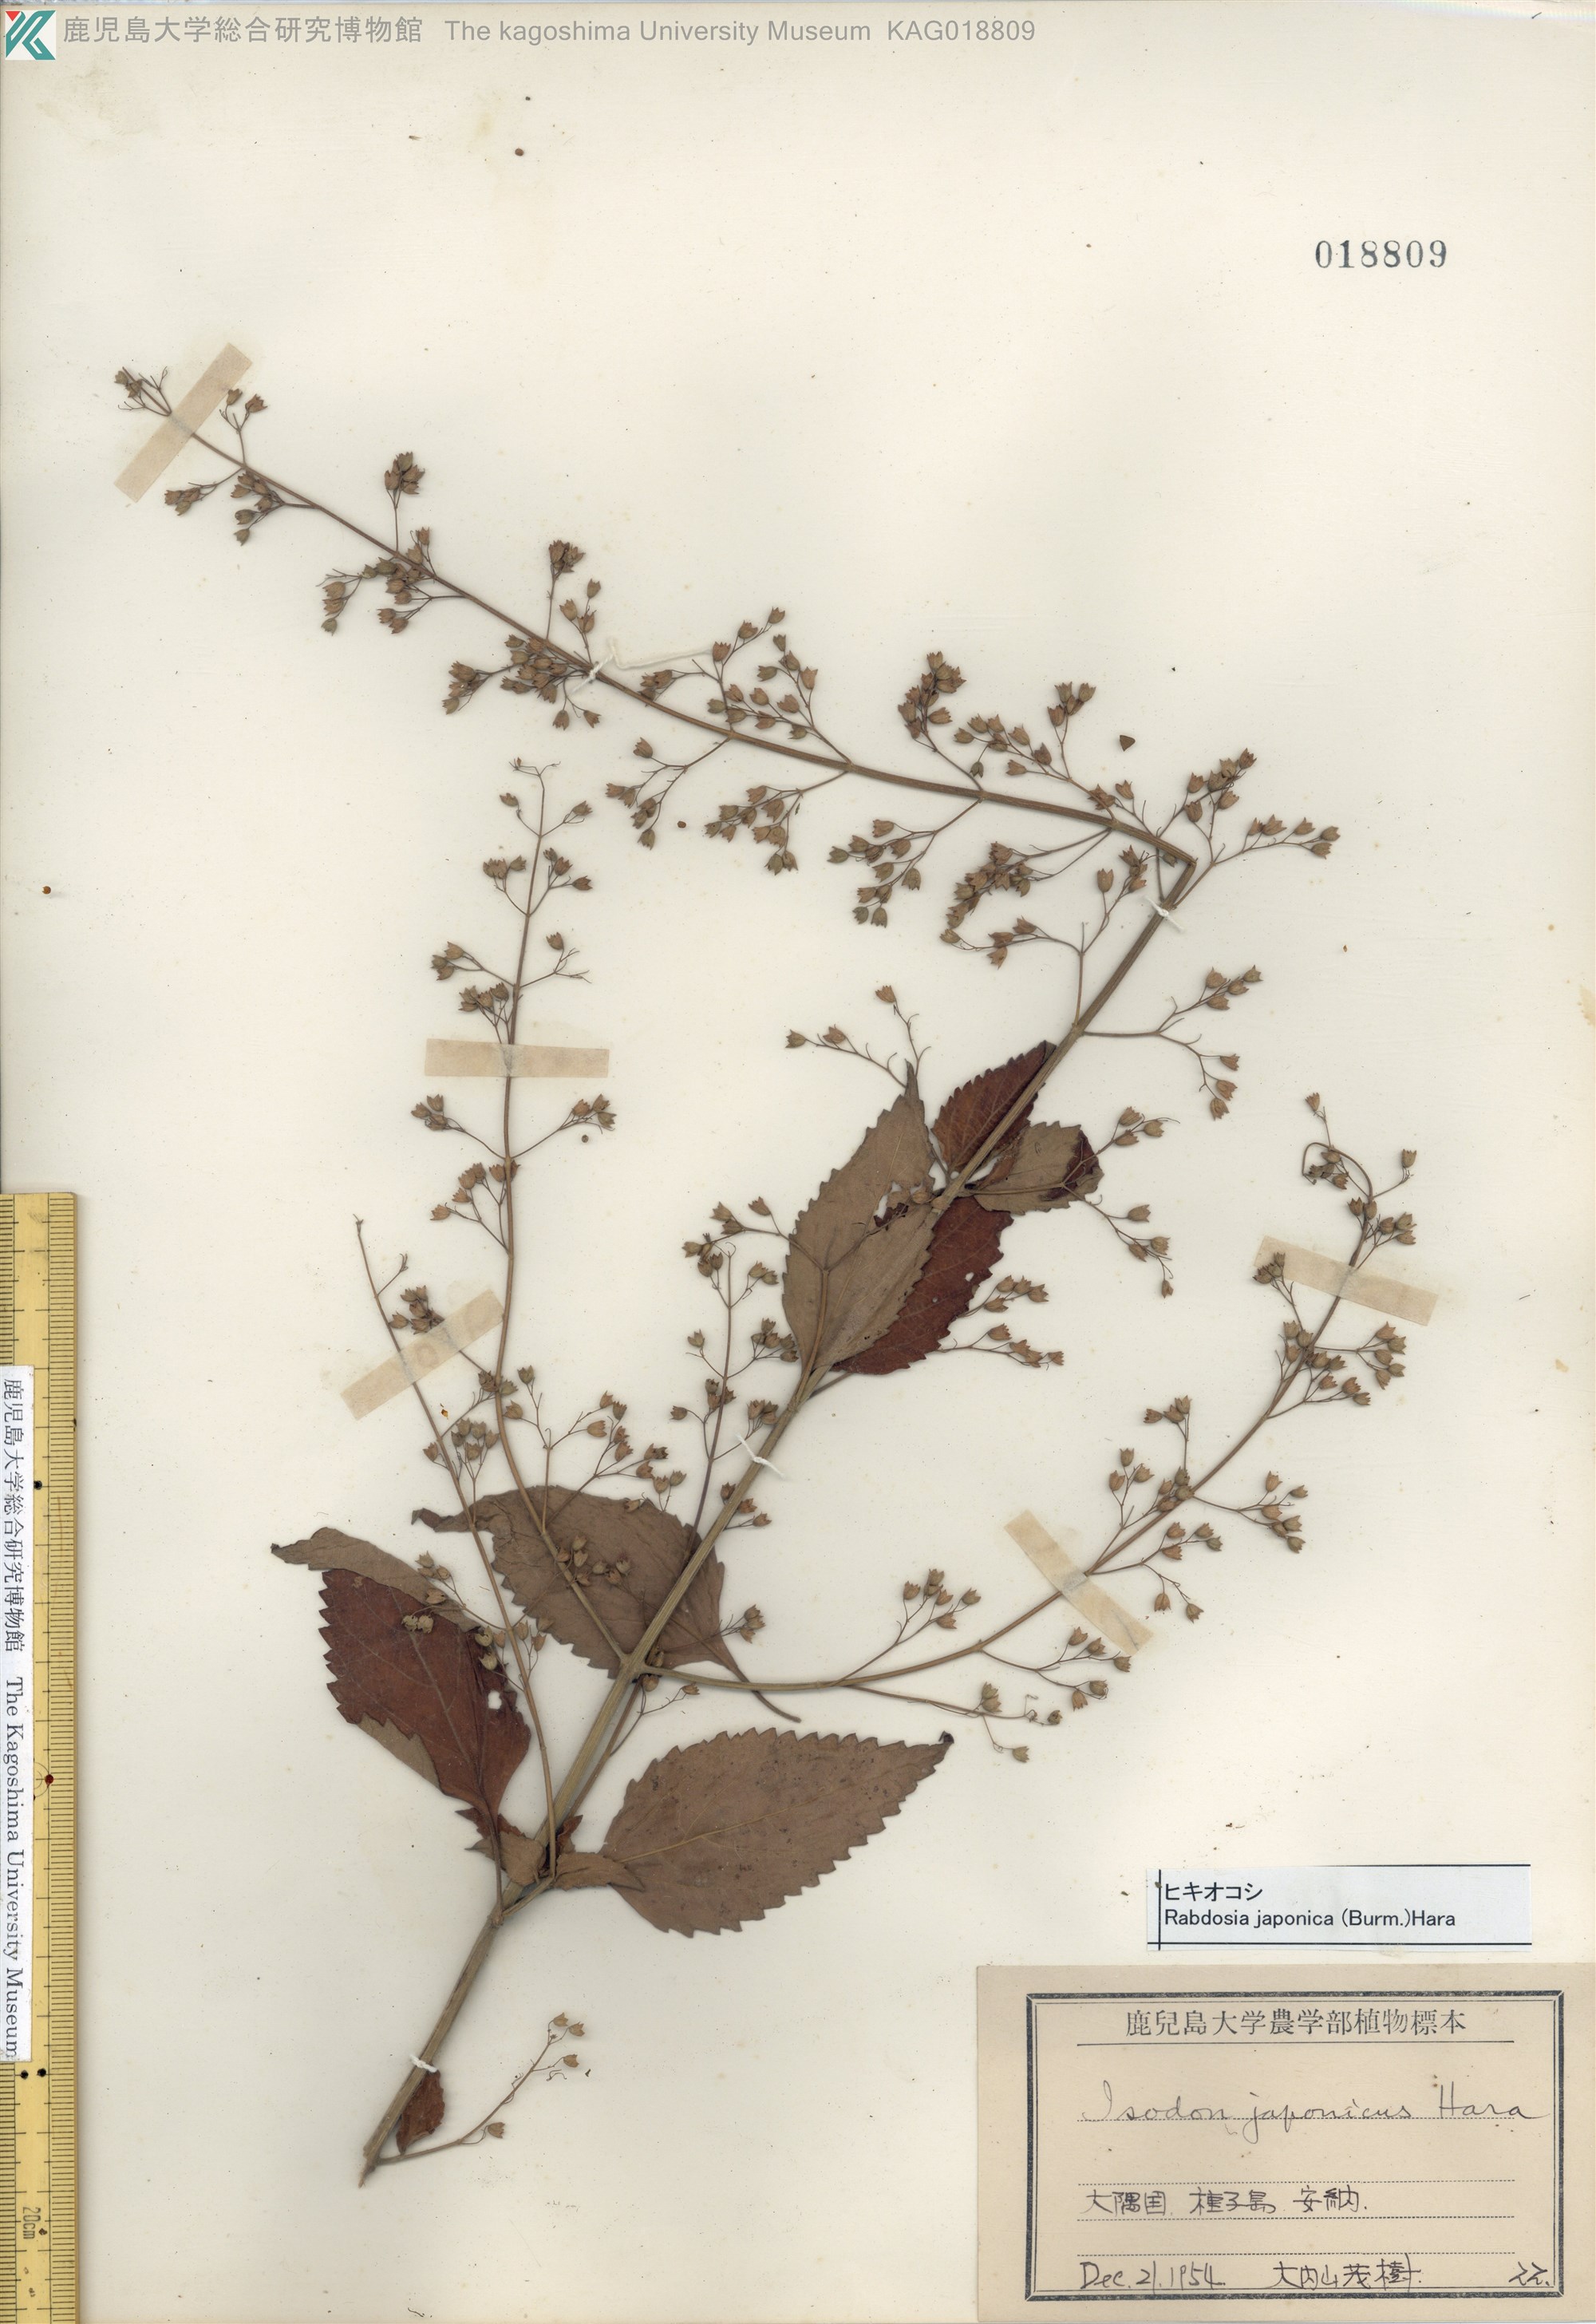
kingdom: Plantae
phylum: Tracheophyta
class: Magnoliopsida
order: Lamiales
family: Lamiaceae
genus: Isodon
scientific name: Isodon japonicus
